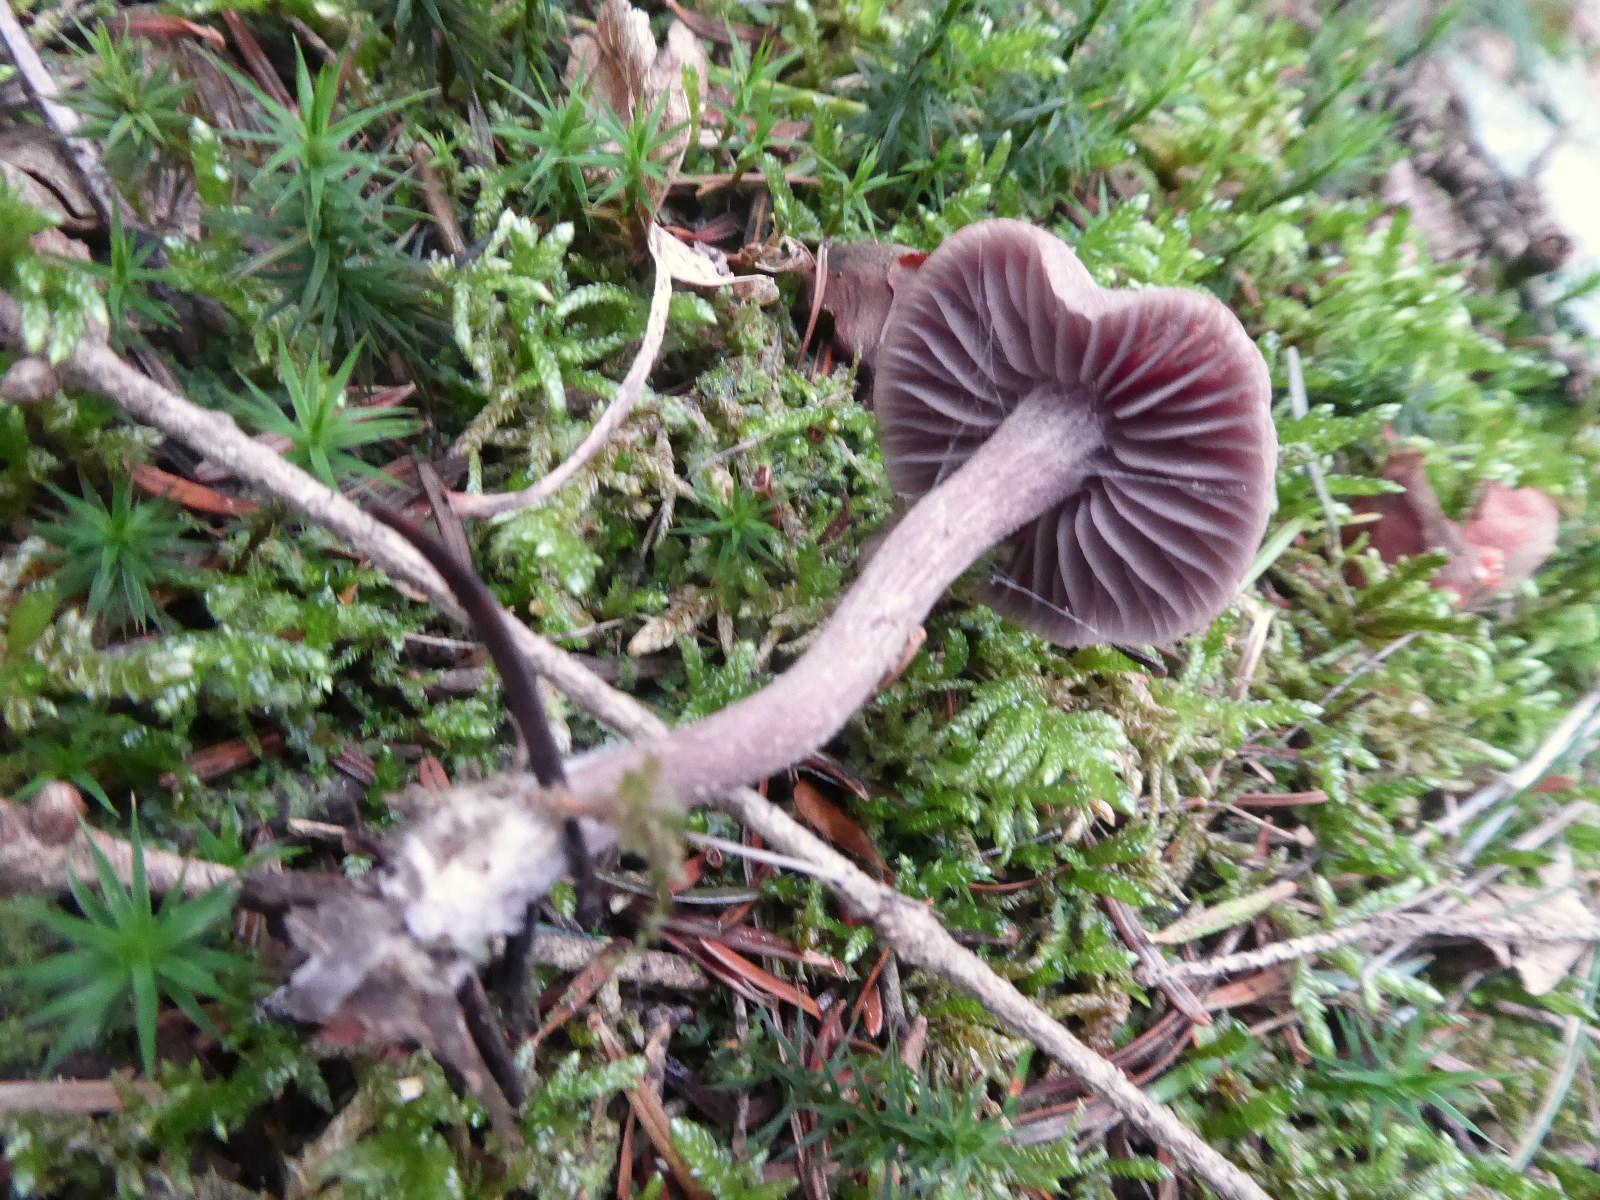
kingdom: Fungi
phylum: Basidiomycota
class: Agaricomycetes
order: Agaricales
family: Hydnangiaceae
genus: Laccaria
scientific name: Laccaria amethystina
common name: violet ametysthat
